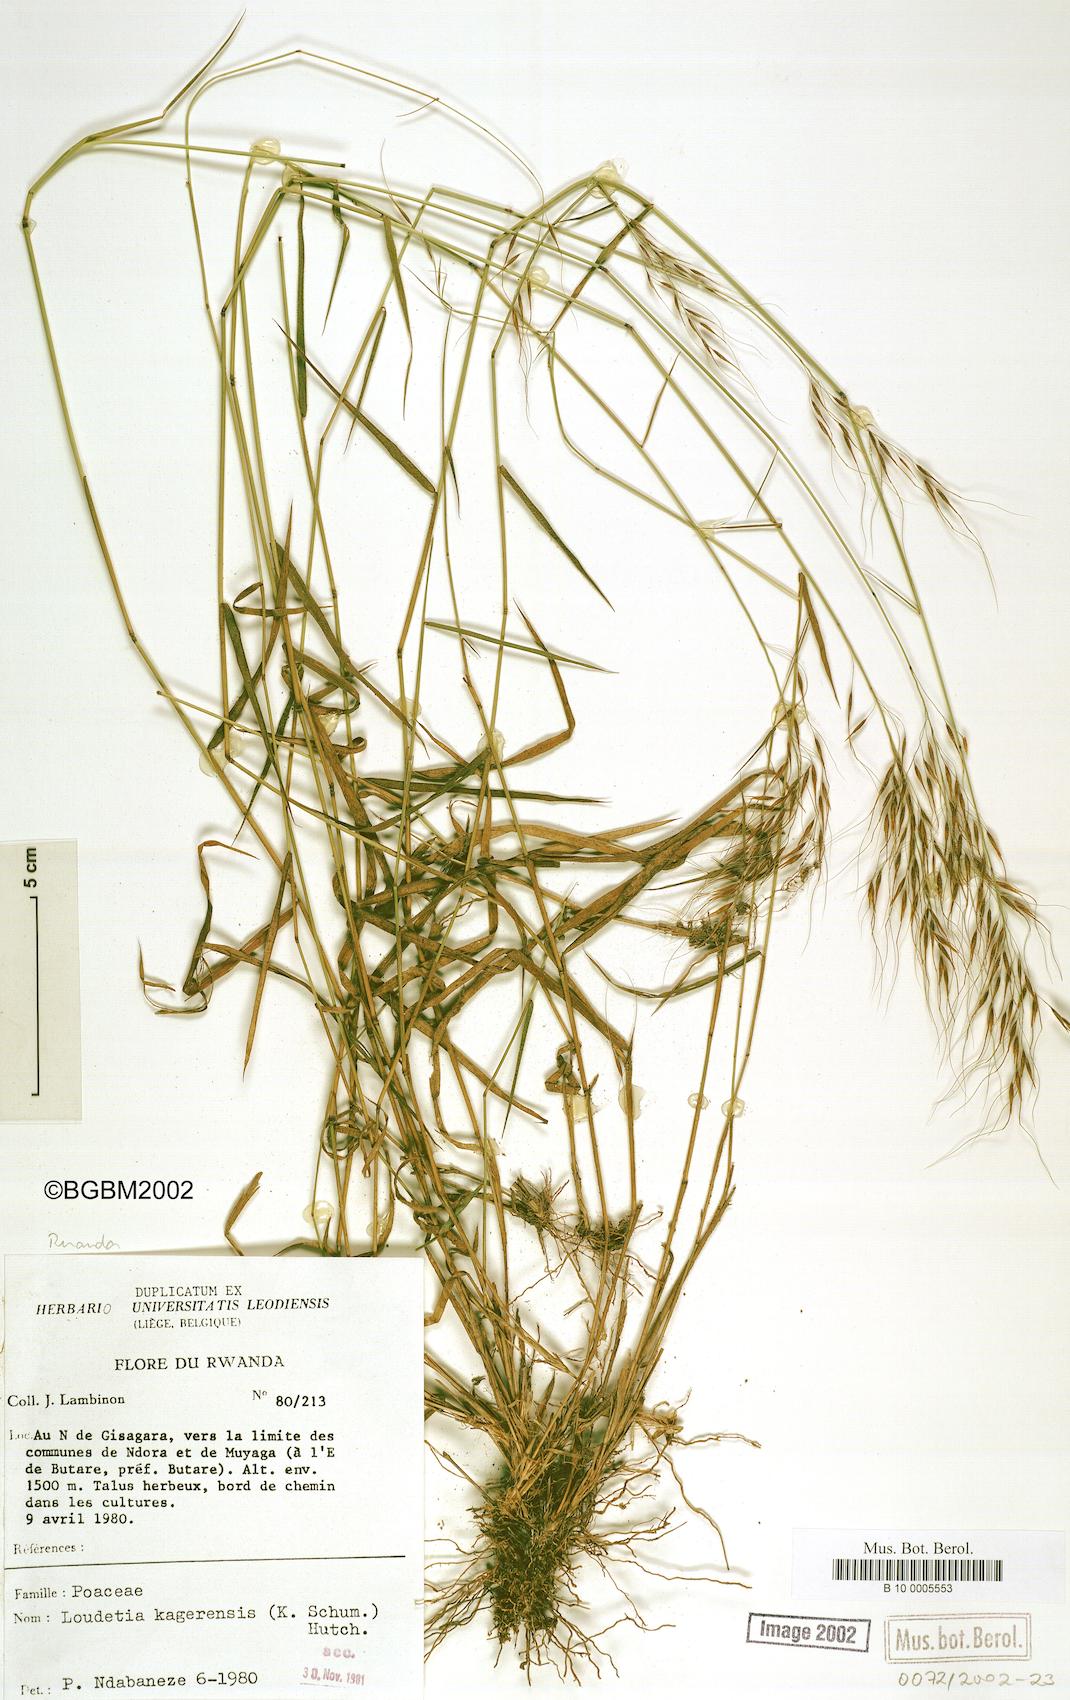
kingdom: Plantae
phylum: Tracheophyta
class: Liliopsida
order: Poales
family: Poaceae
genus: Loudetia
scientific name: Loudetia kagerensis
